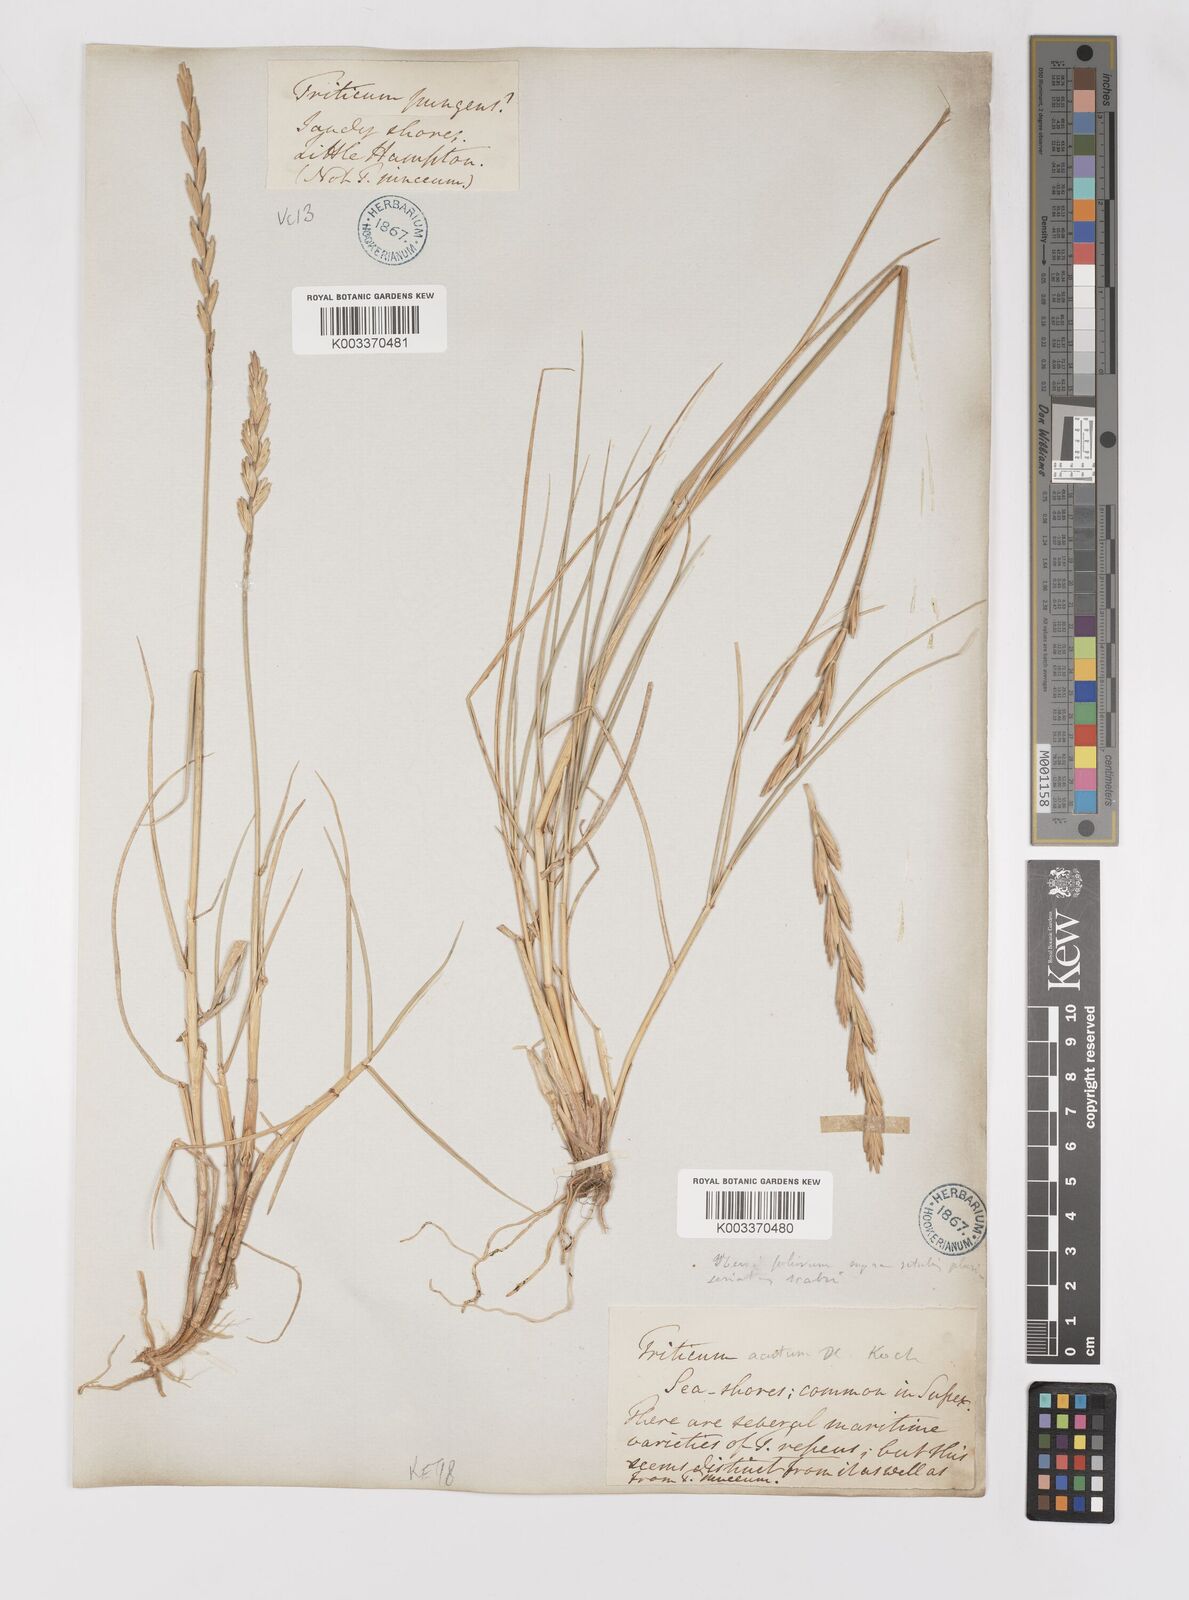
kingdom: Plantae
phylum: Tracheophyta
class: Liliopsida
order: Poales
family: Poaceae
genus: Thinoelymus
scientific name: Thinoelymus obtusiusculus
